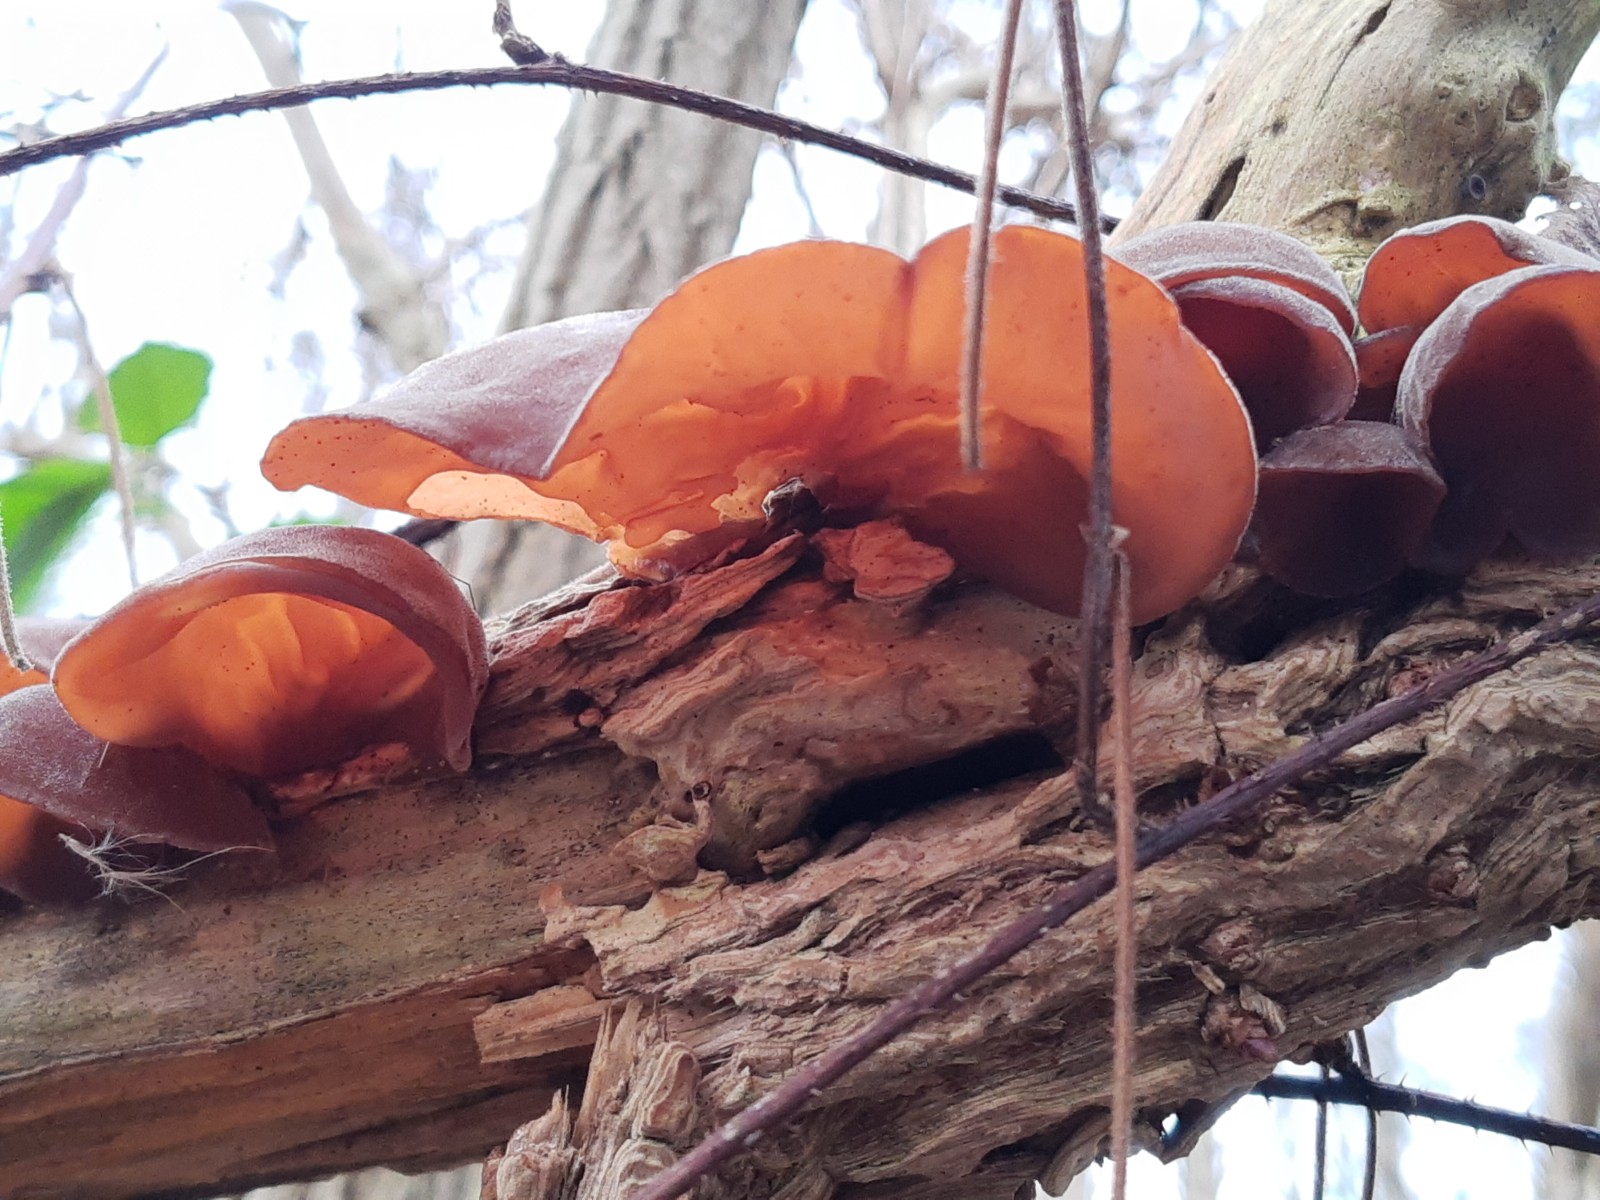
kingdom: Fungi
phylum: Basidiomycota
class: Agaricomycetes
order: Auriculariales
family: Auriculariaceae
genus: Auricularia
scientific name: Auricularia auricula-judae
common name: almindelig judasøre
